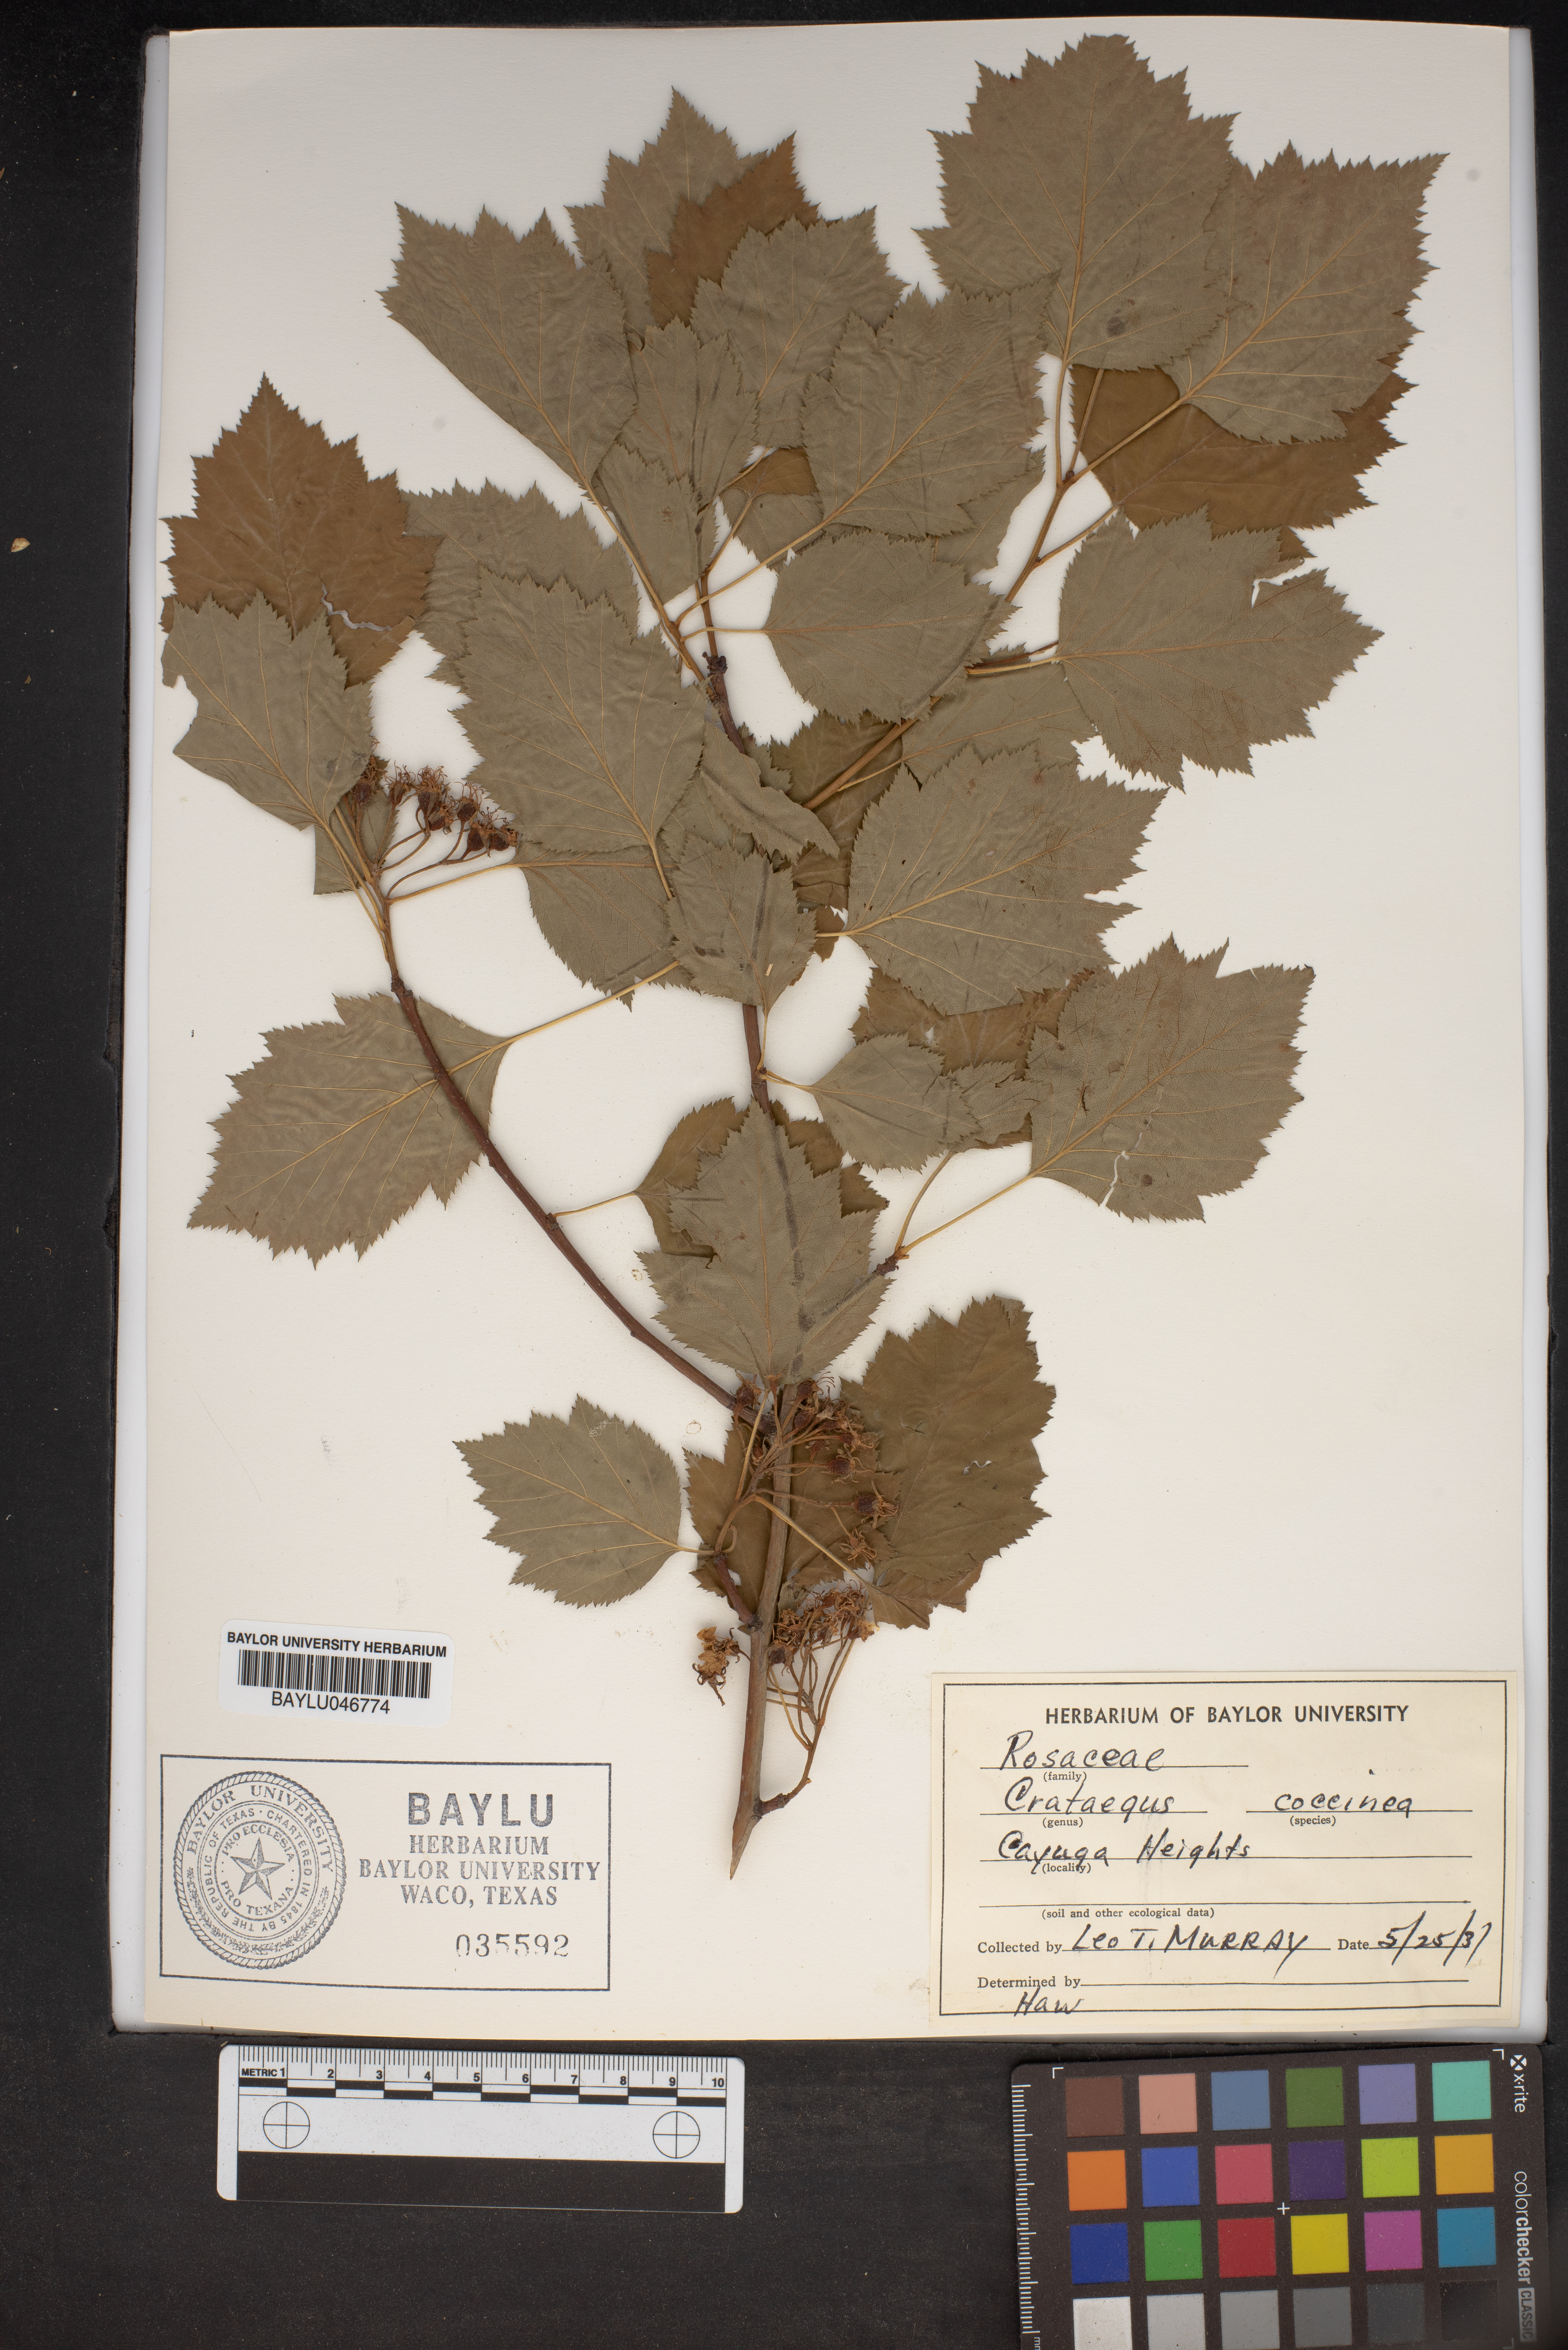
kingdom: Plantae
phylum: Tracheophyta
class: Magnoliopsida
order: Rosales
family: Rosaceae
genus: Crataegus
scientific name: Crataegus coccinea
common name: Scarlet hawthorn
